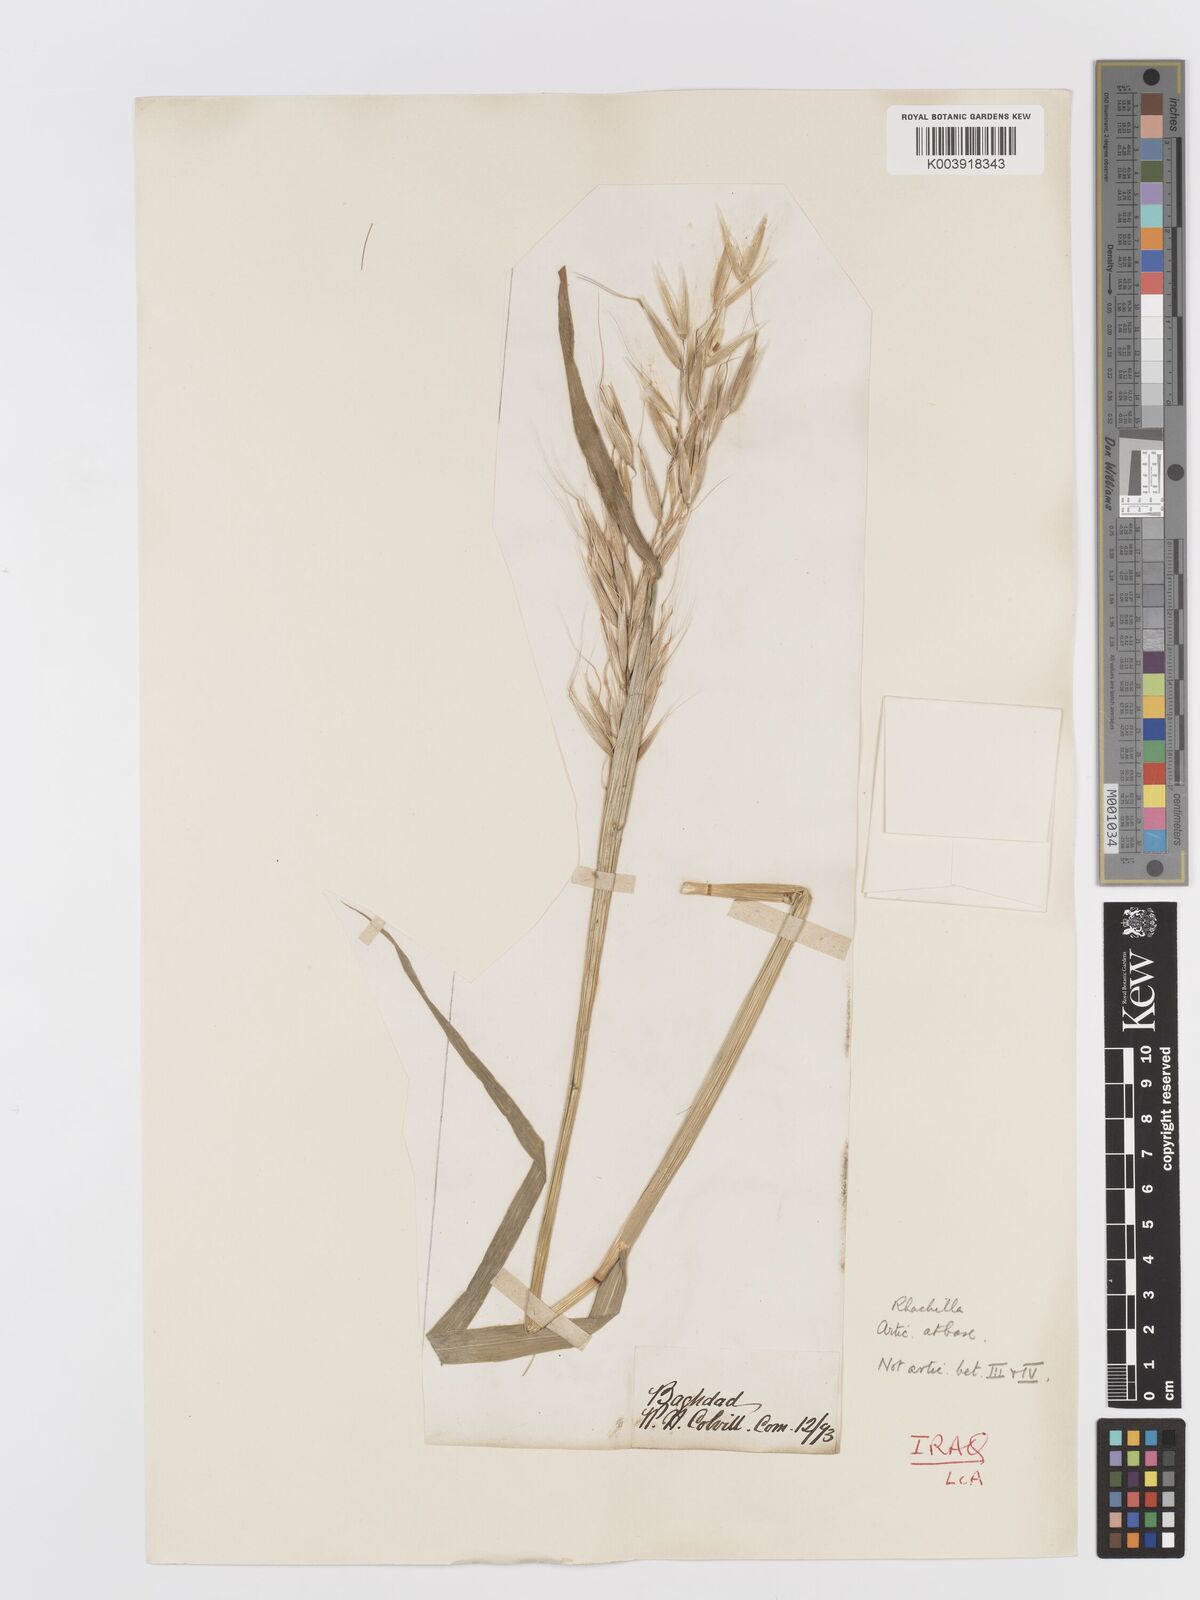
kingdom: Plantae
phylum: Tracheophyta
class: Liliopsida
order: Poales
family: Poaceae
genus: Avena
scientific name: Avena sterilis
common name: Animated oat
